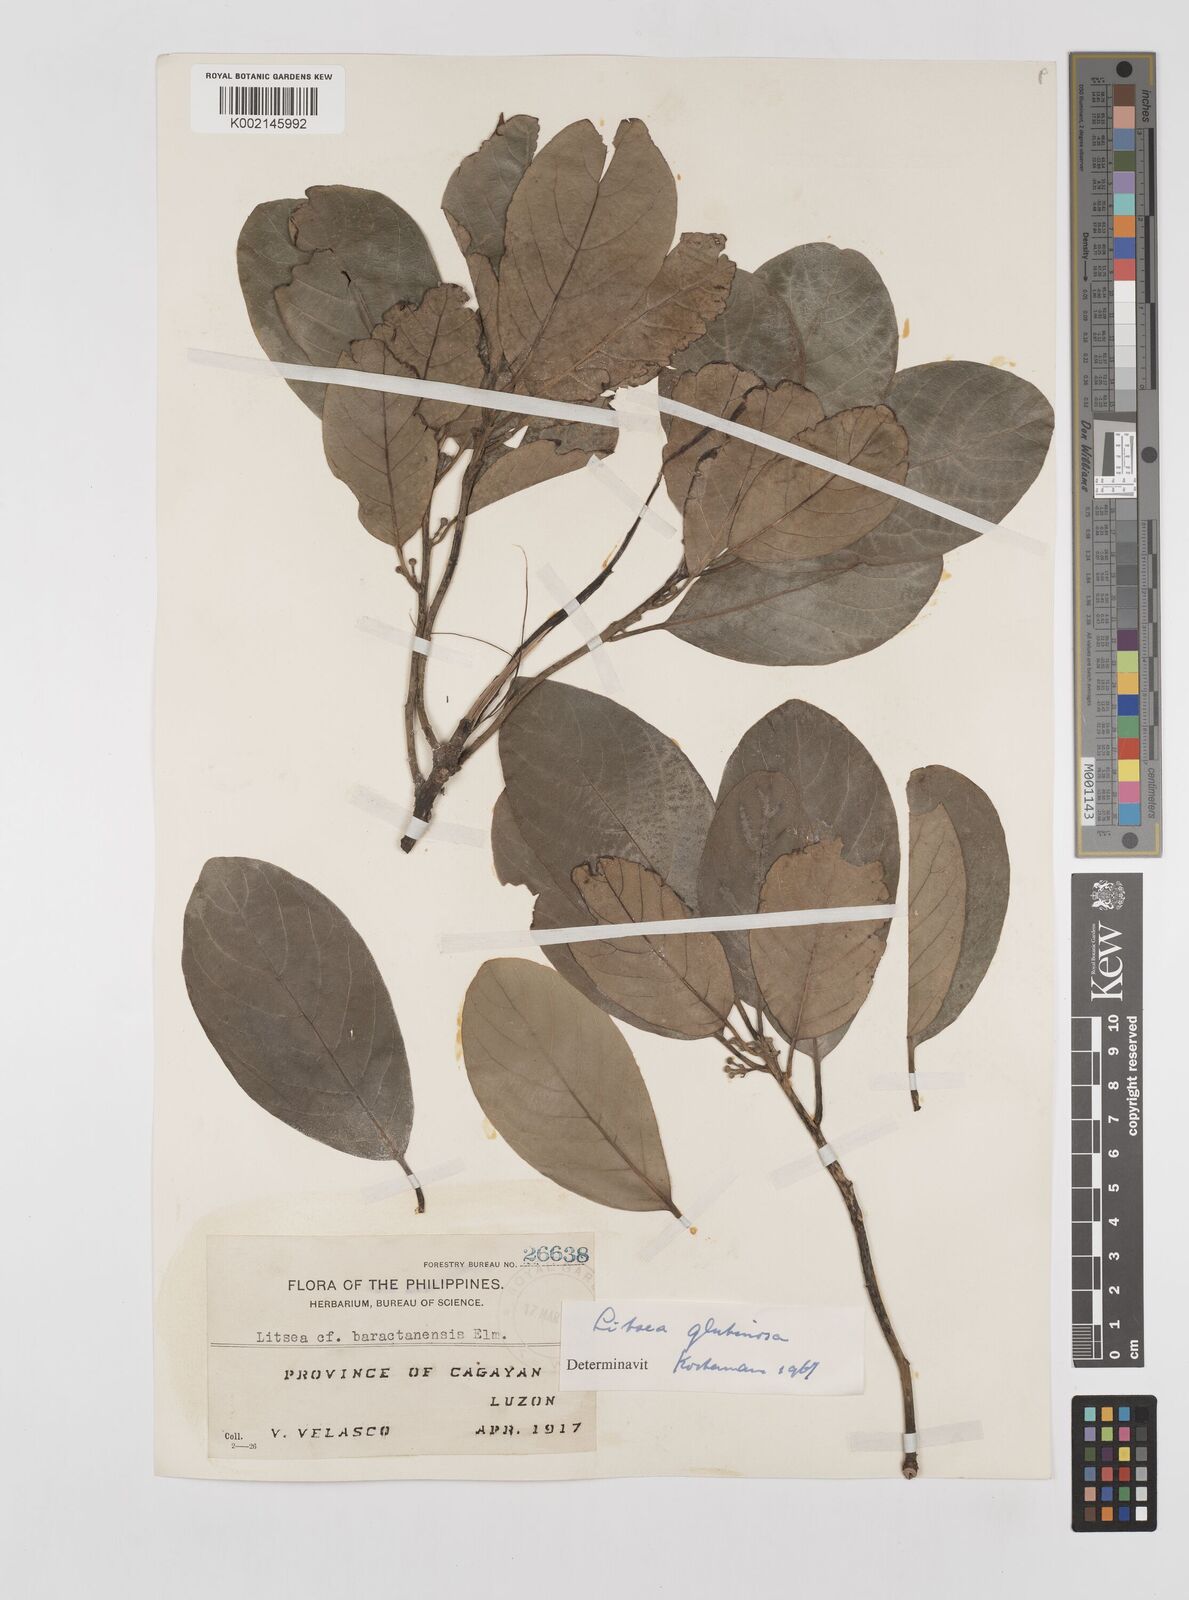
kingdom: Plantae
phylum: Tracheophyta
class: Magnoliopsida
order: Laurales
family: Lauraceae
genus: Litsea
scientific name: Litsea glutinosa
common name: Indian-laurel
